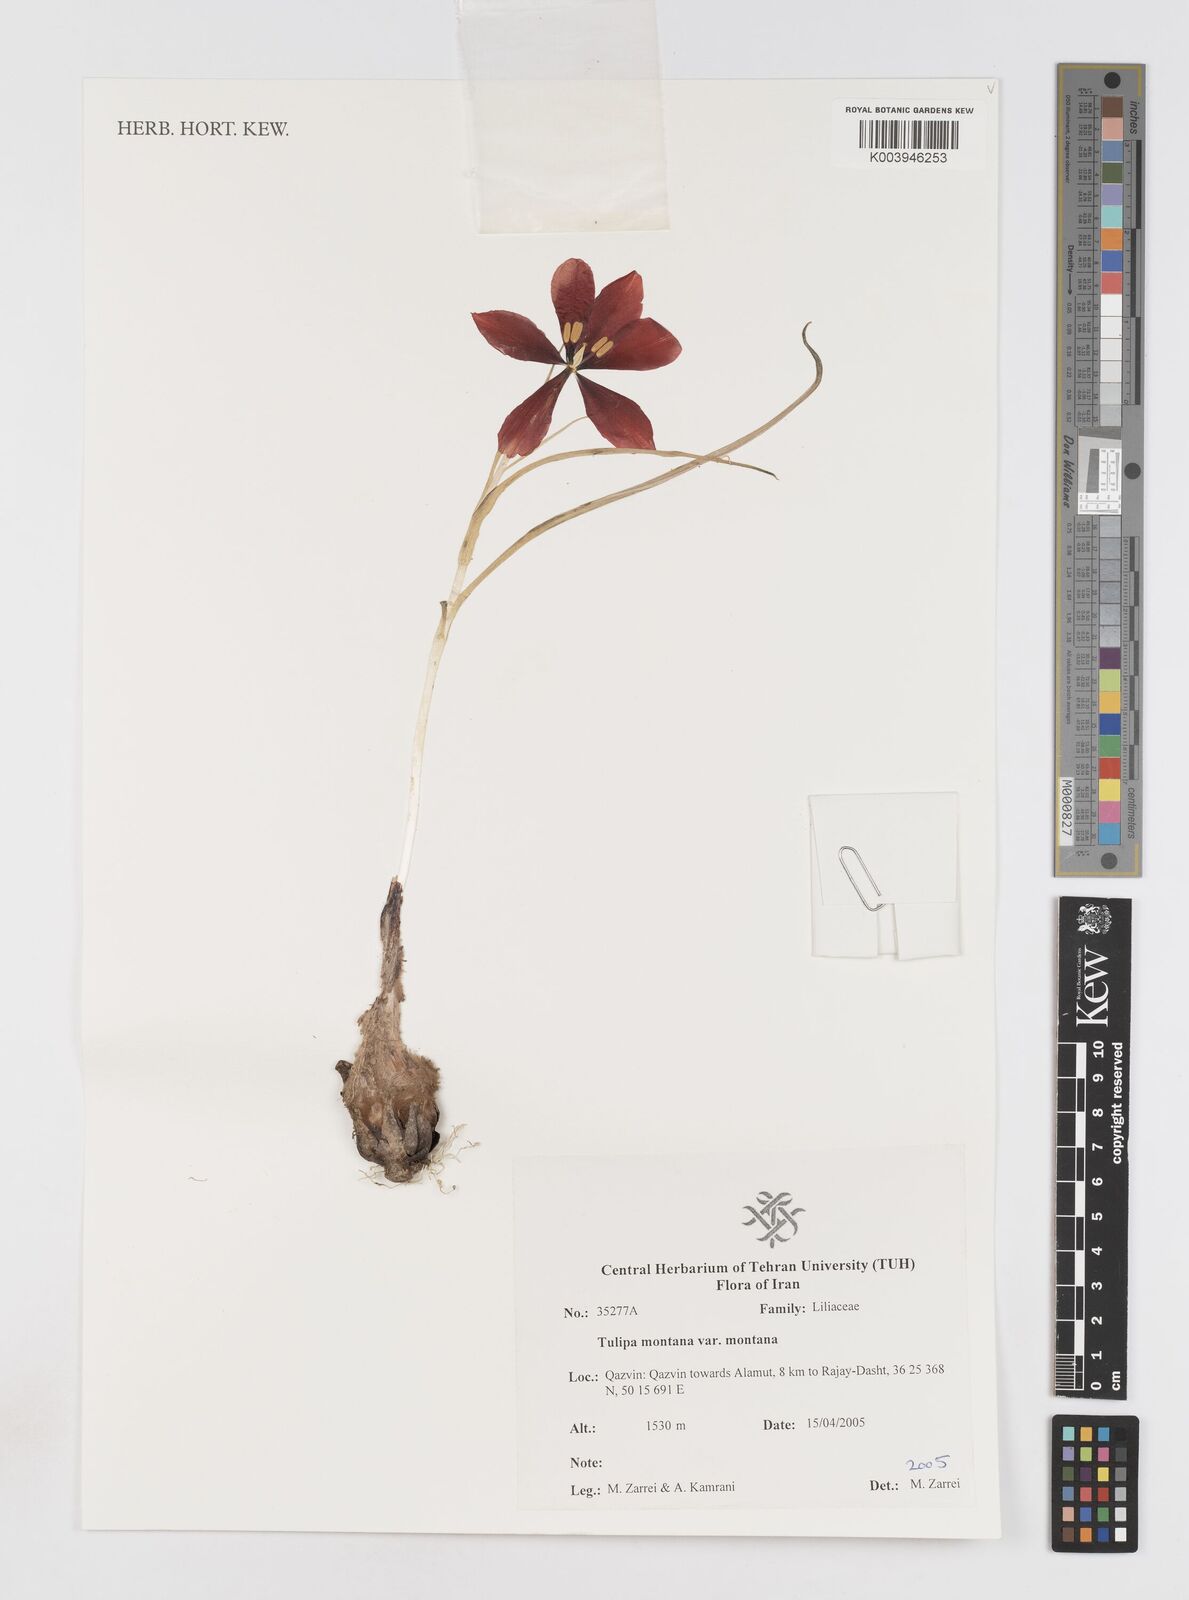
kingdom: Plantae
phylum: Tracheophyta
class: Liliopsida
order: Liliales
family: Liliaceae
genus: Tulipa
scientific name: Tulipa montana
